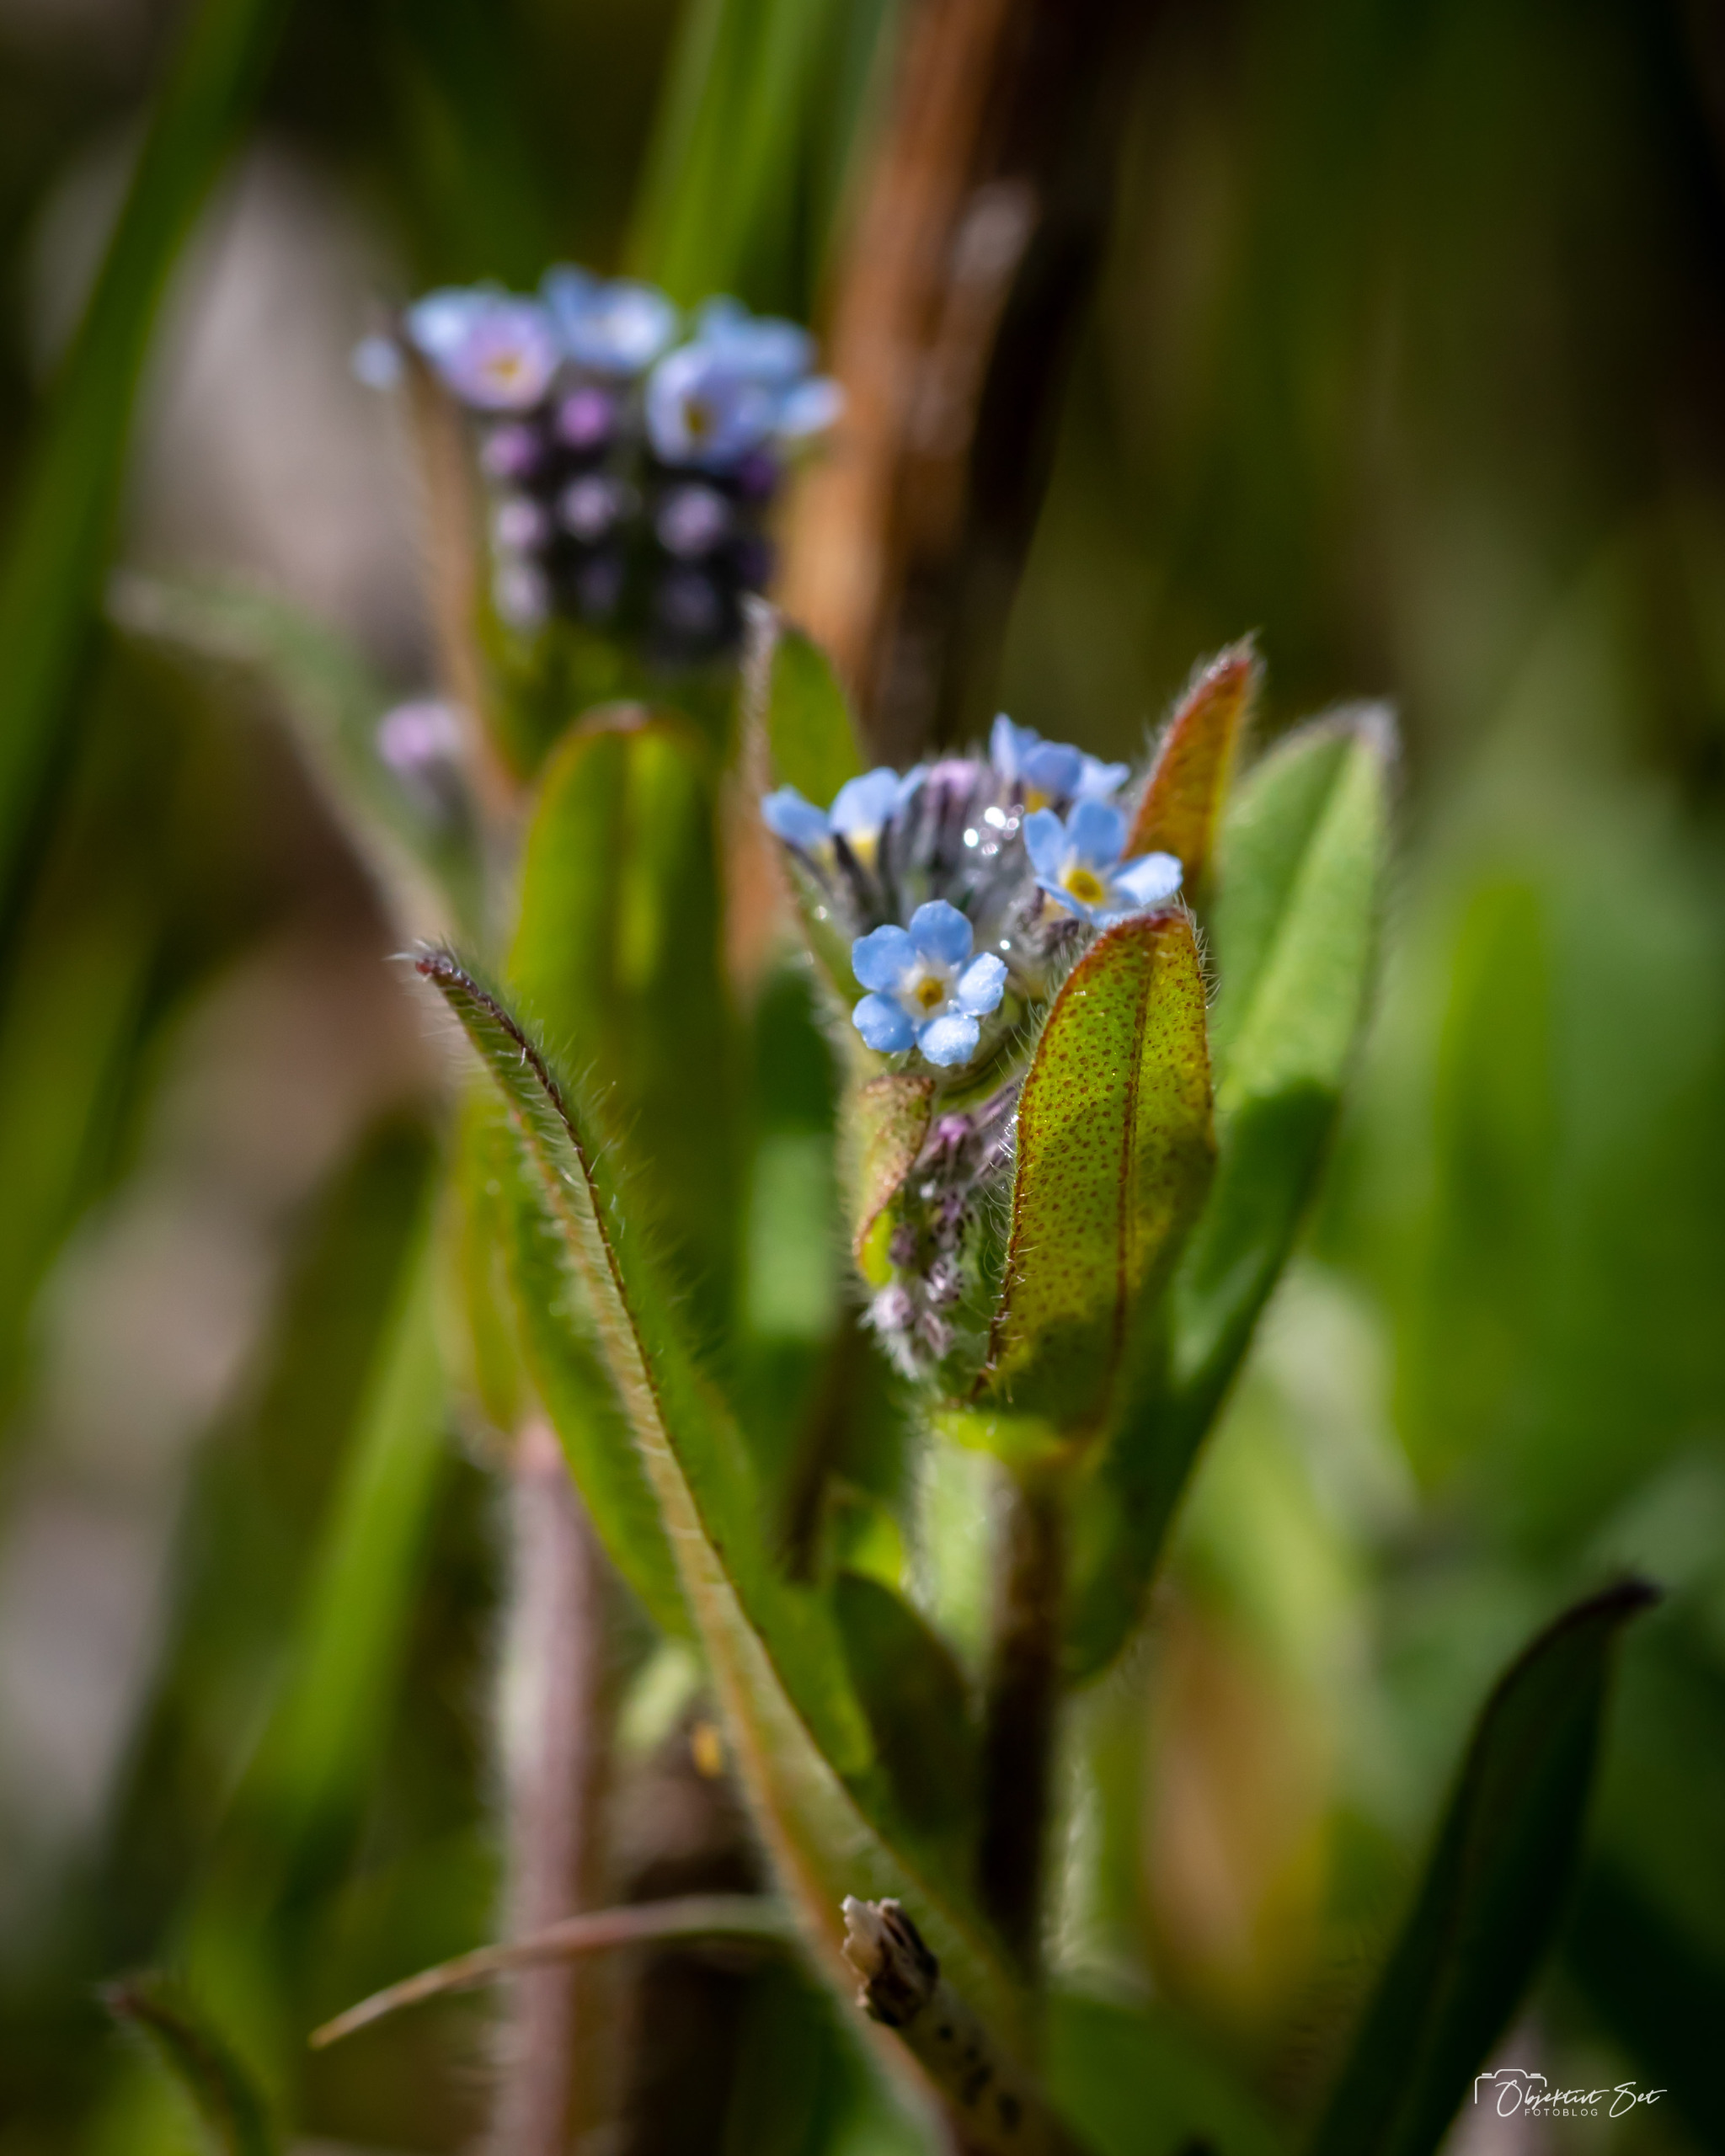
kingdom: Plantae
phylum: Tracheophyta
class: Magnoliopsida
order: Boraginales
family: Boraginaceae
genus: Myosotis
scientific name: Myosotis arvensis
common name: Mark-forglemmigej
